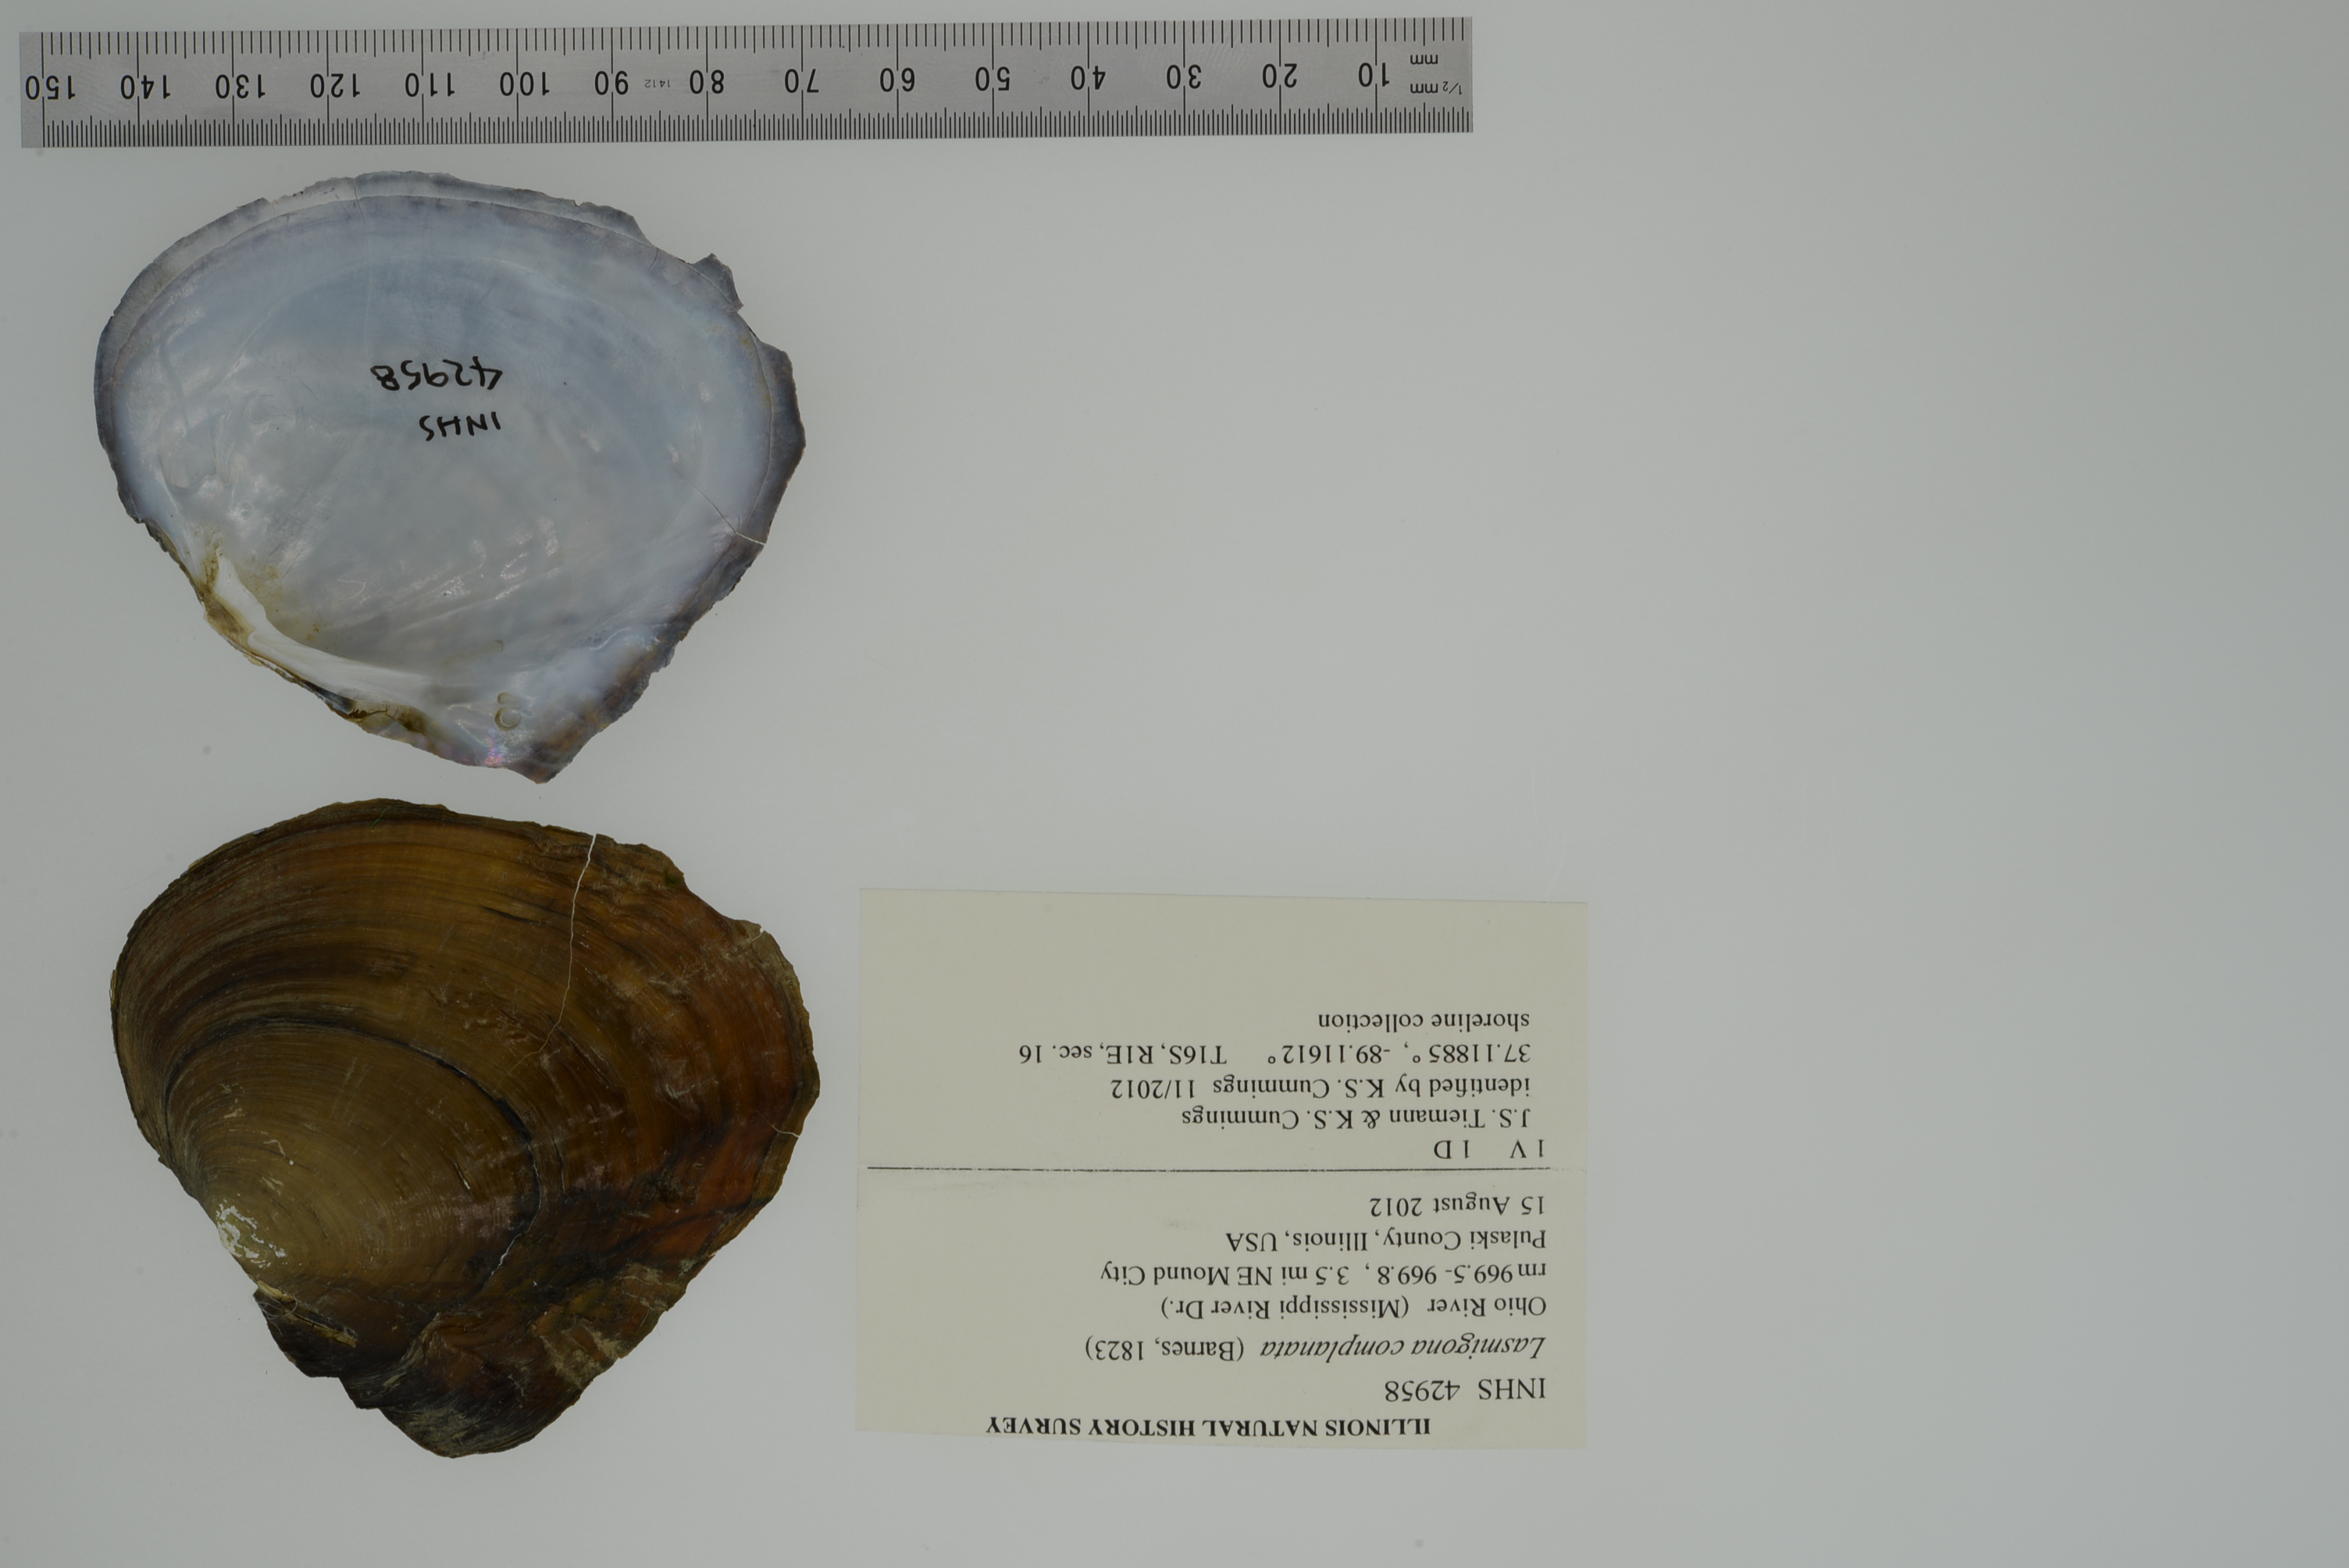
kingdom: Animalia
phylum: Mollusca
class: Bivalvia
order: Unionida
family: Unionidae
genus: Lasmigona
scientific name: Lasmigona complanata
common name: White heelsplitter
